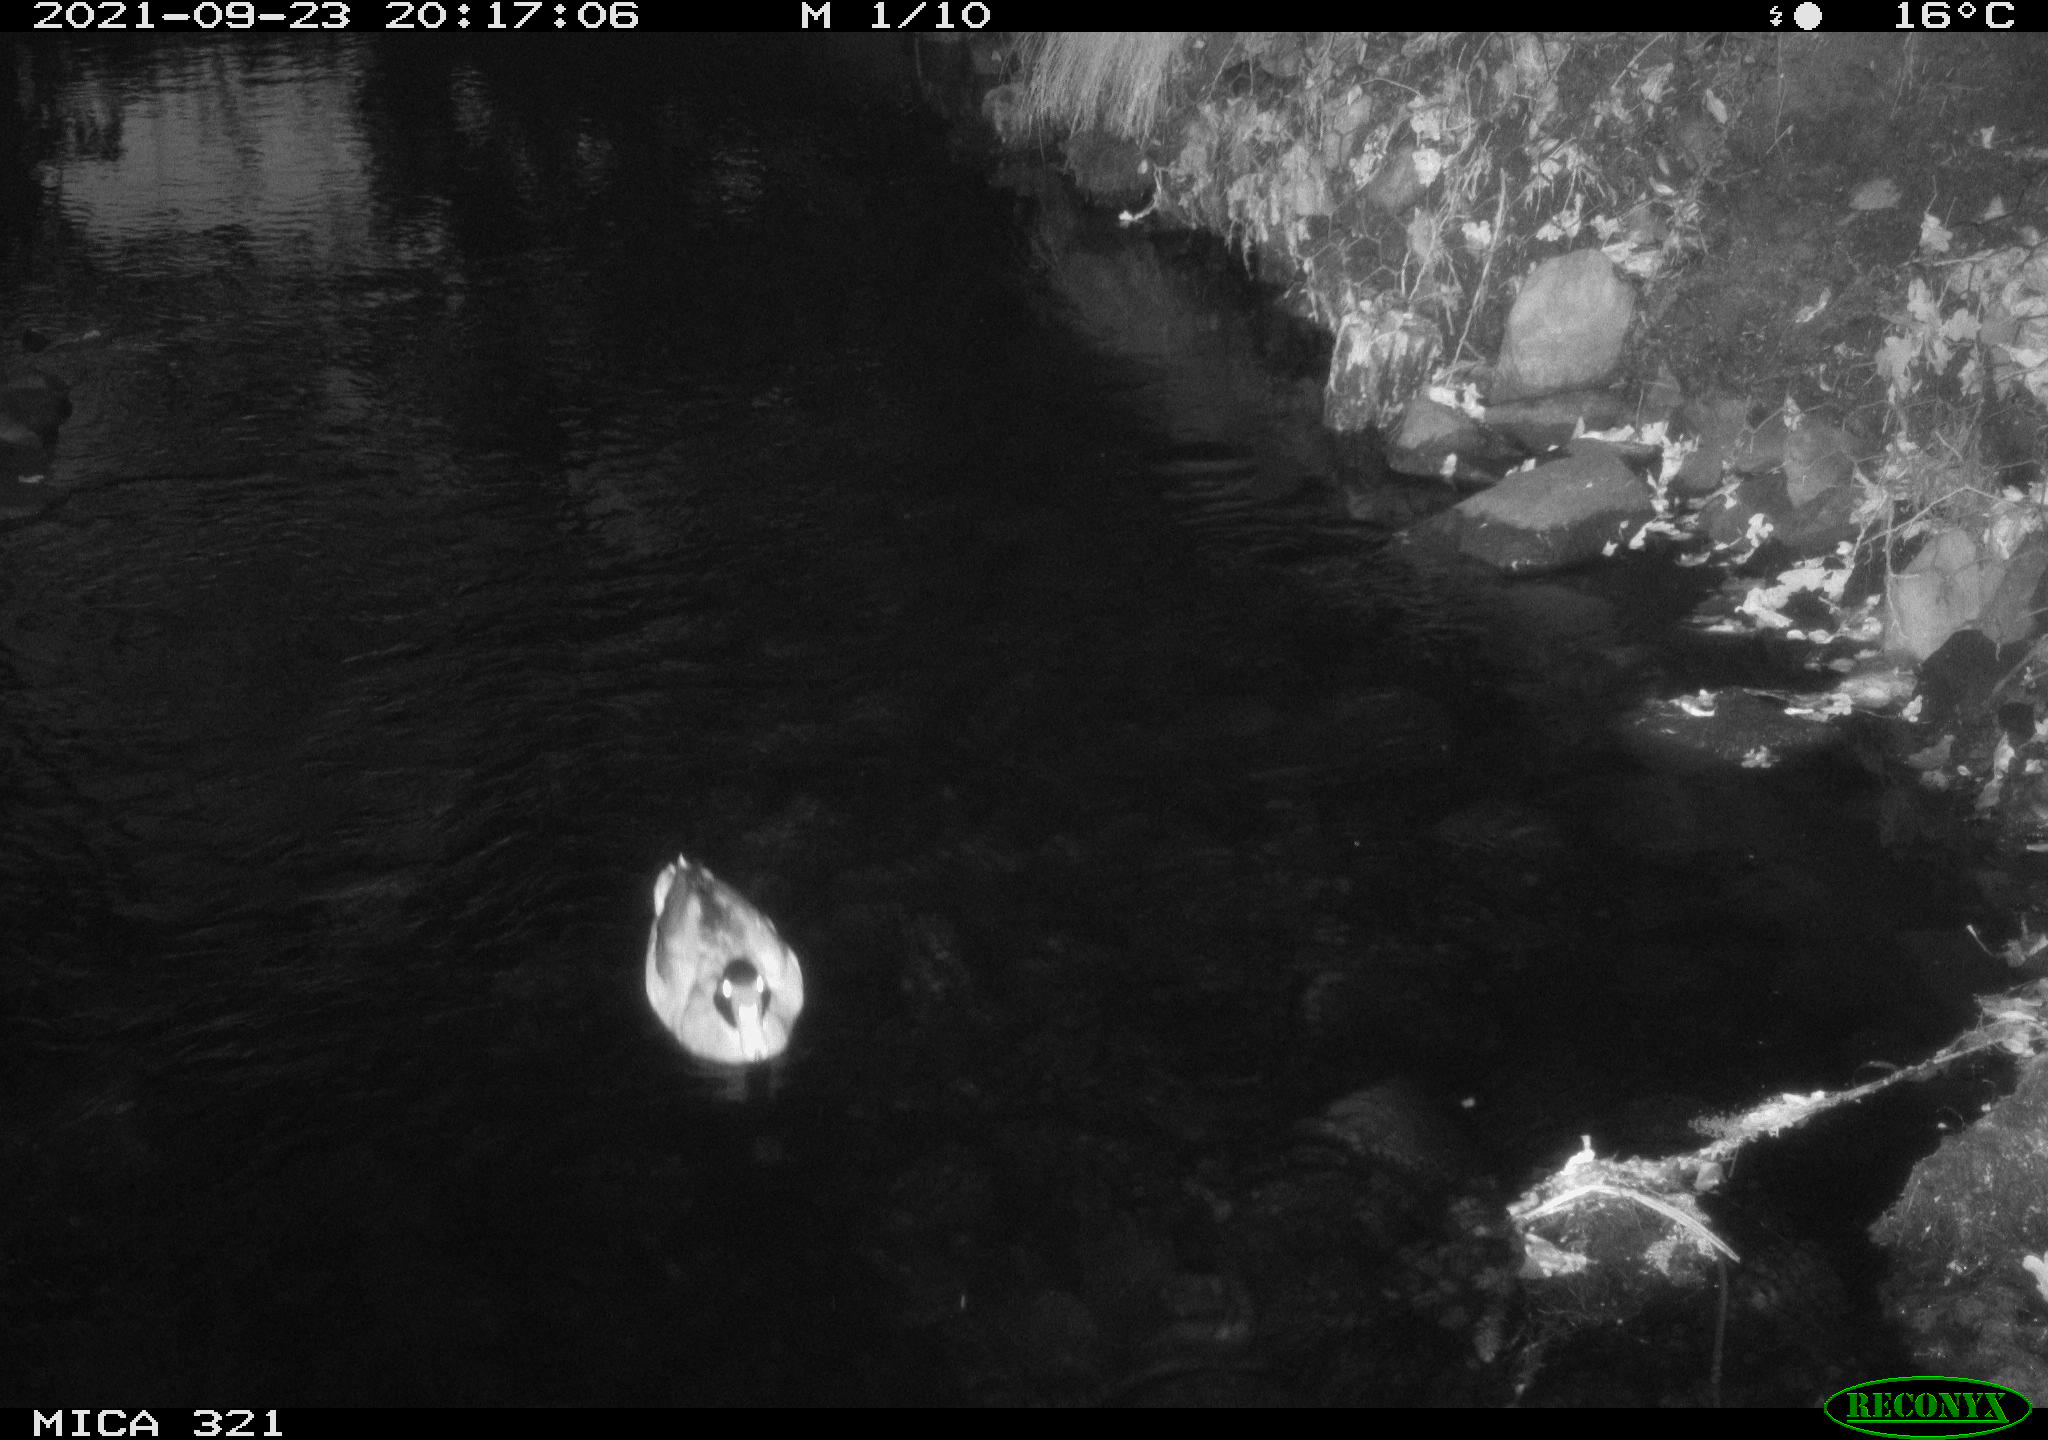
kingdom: Animalia
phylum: Chordata
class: Aves
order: Anseriformes
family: Anatidae
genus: Anas
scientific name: Anas platyrhynchos
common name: Mallard
